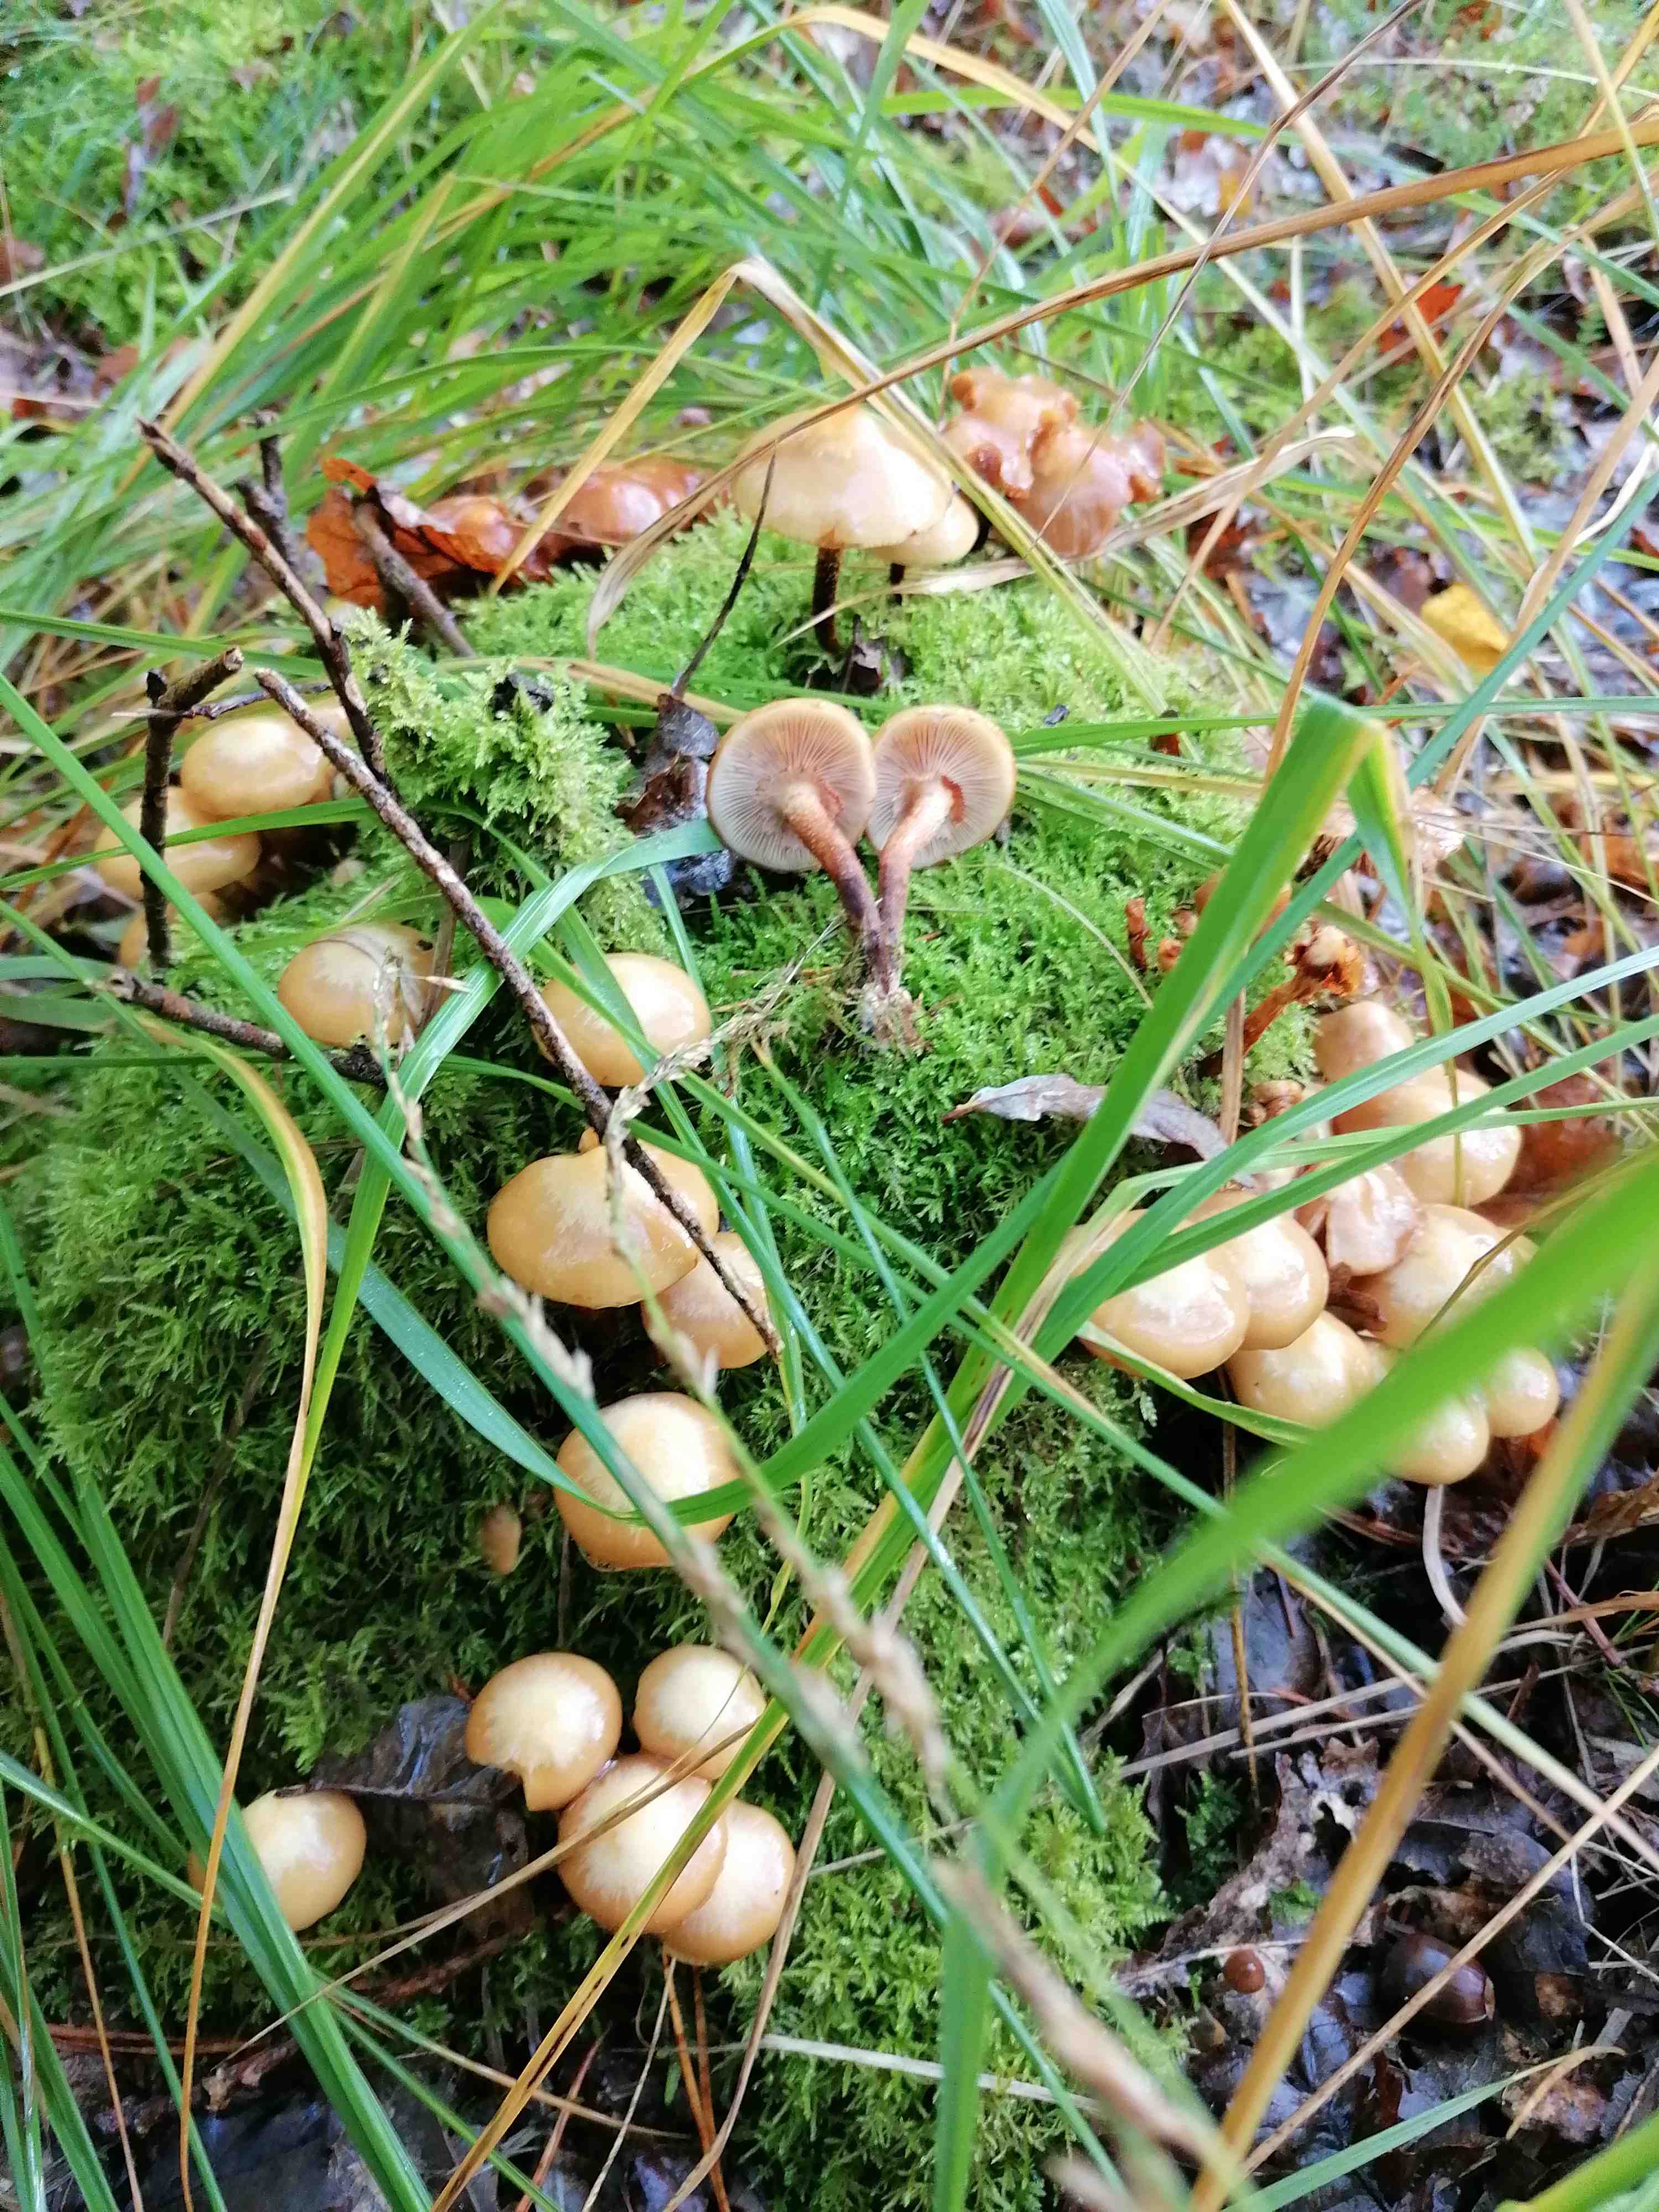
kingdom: Fungi
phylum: Basidiomycota
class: Agaricomycetes
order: Agaricales
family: Strophariaceae
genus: Kuehneromyces
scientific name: Kuehneromyces mutabilis
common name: foranderlig skælhat
